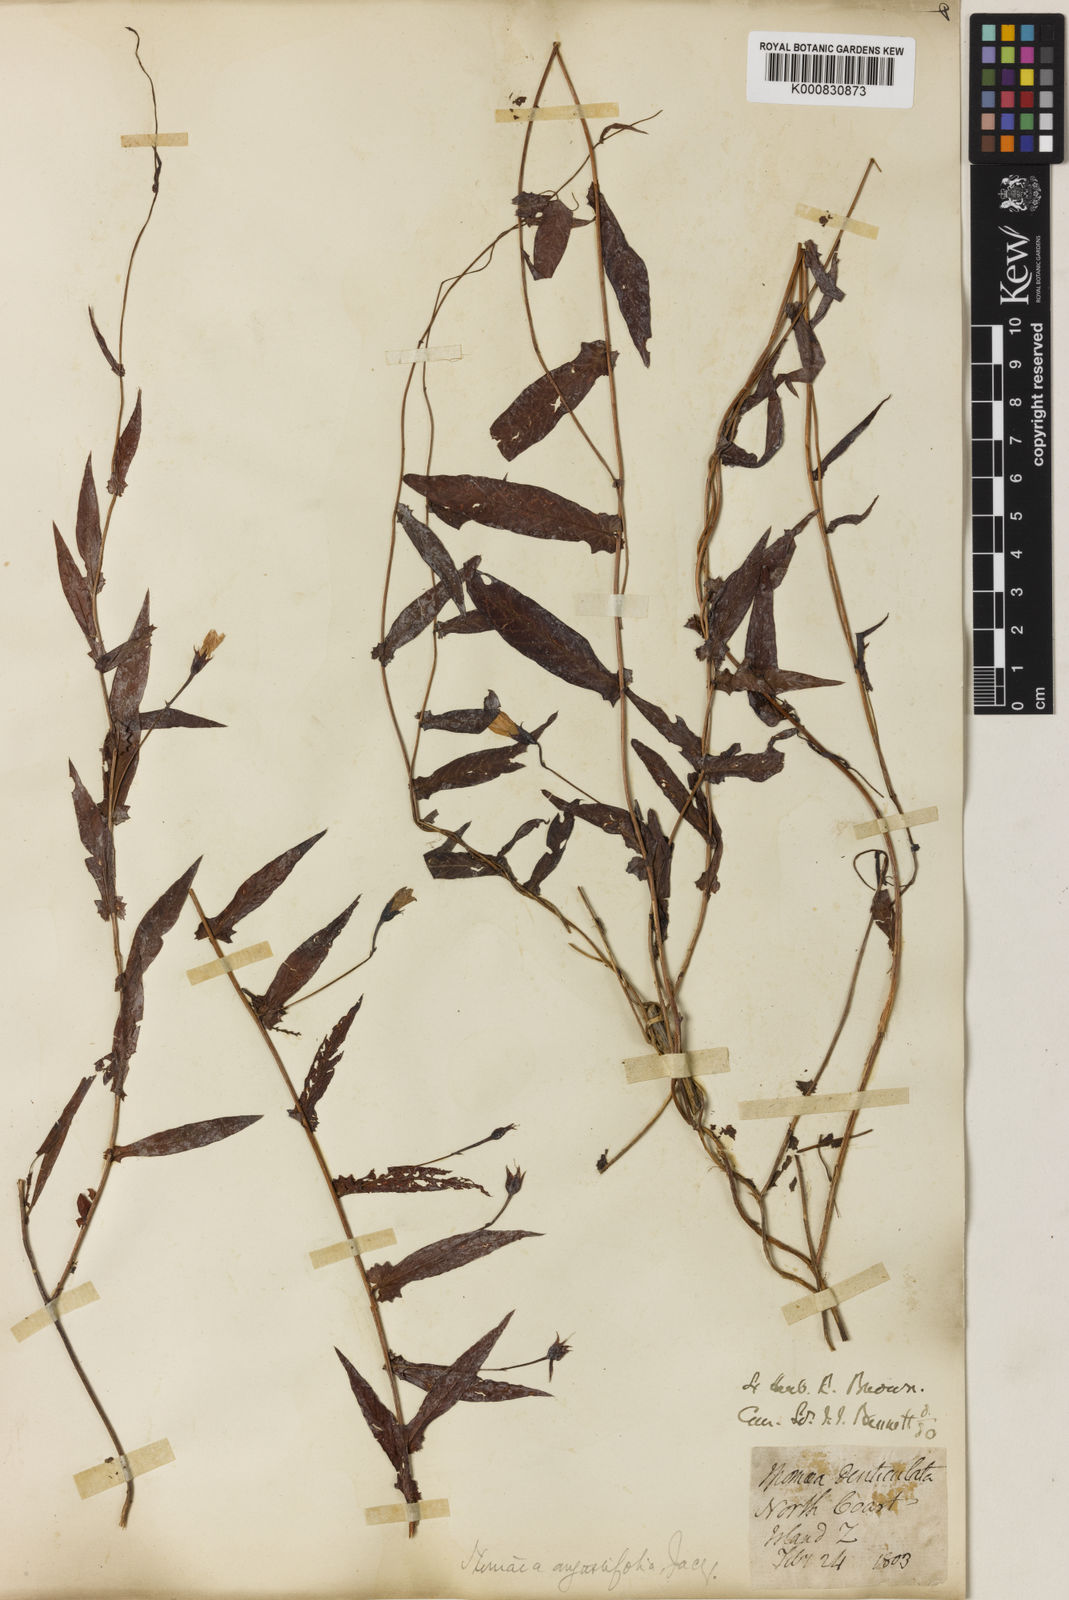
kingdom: Plantae
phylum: Tracheophyta
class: Magnoliopsida
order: Solanales
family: Convolvulaceae
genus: Xenostegia
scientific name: Xenostegia tridentata
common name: African morningvine
